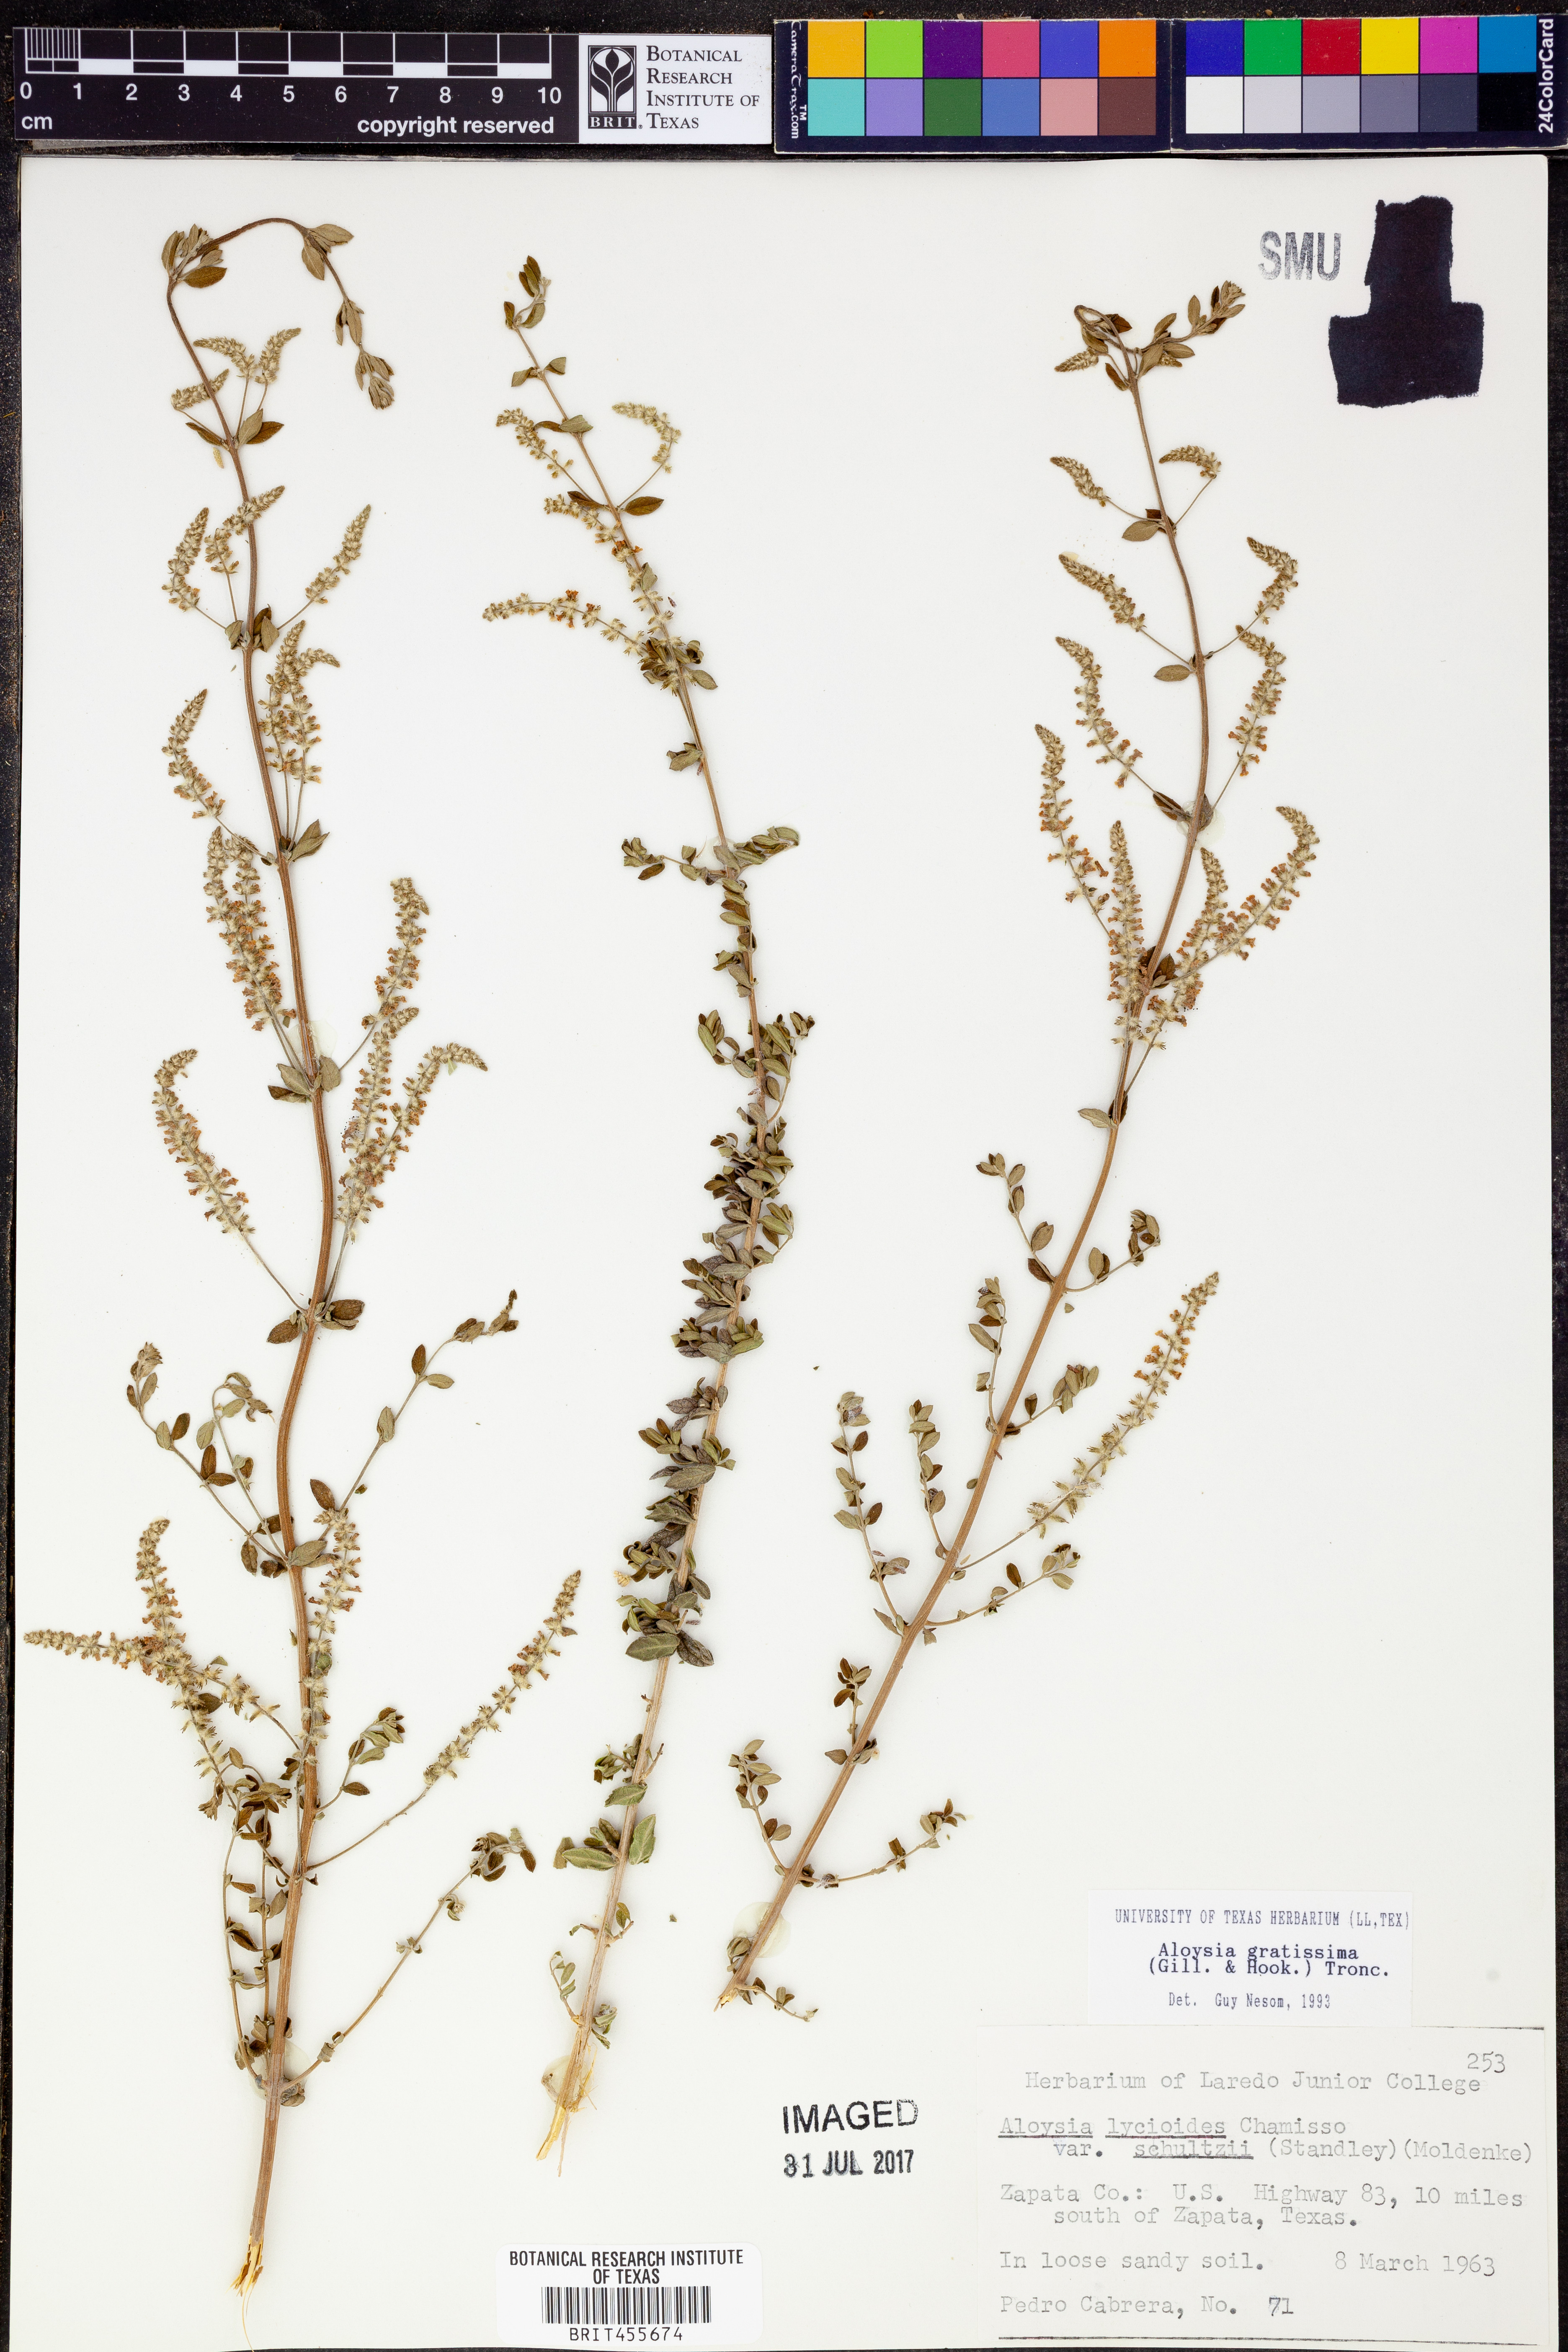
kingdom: Plantae
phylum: Tracheophyta
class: Magnoliopsida
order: Lamiales
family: Verbenaceae
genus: Aloysia
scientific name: Aloysia gratissima
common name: Common bee-brush
